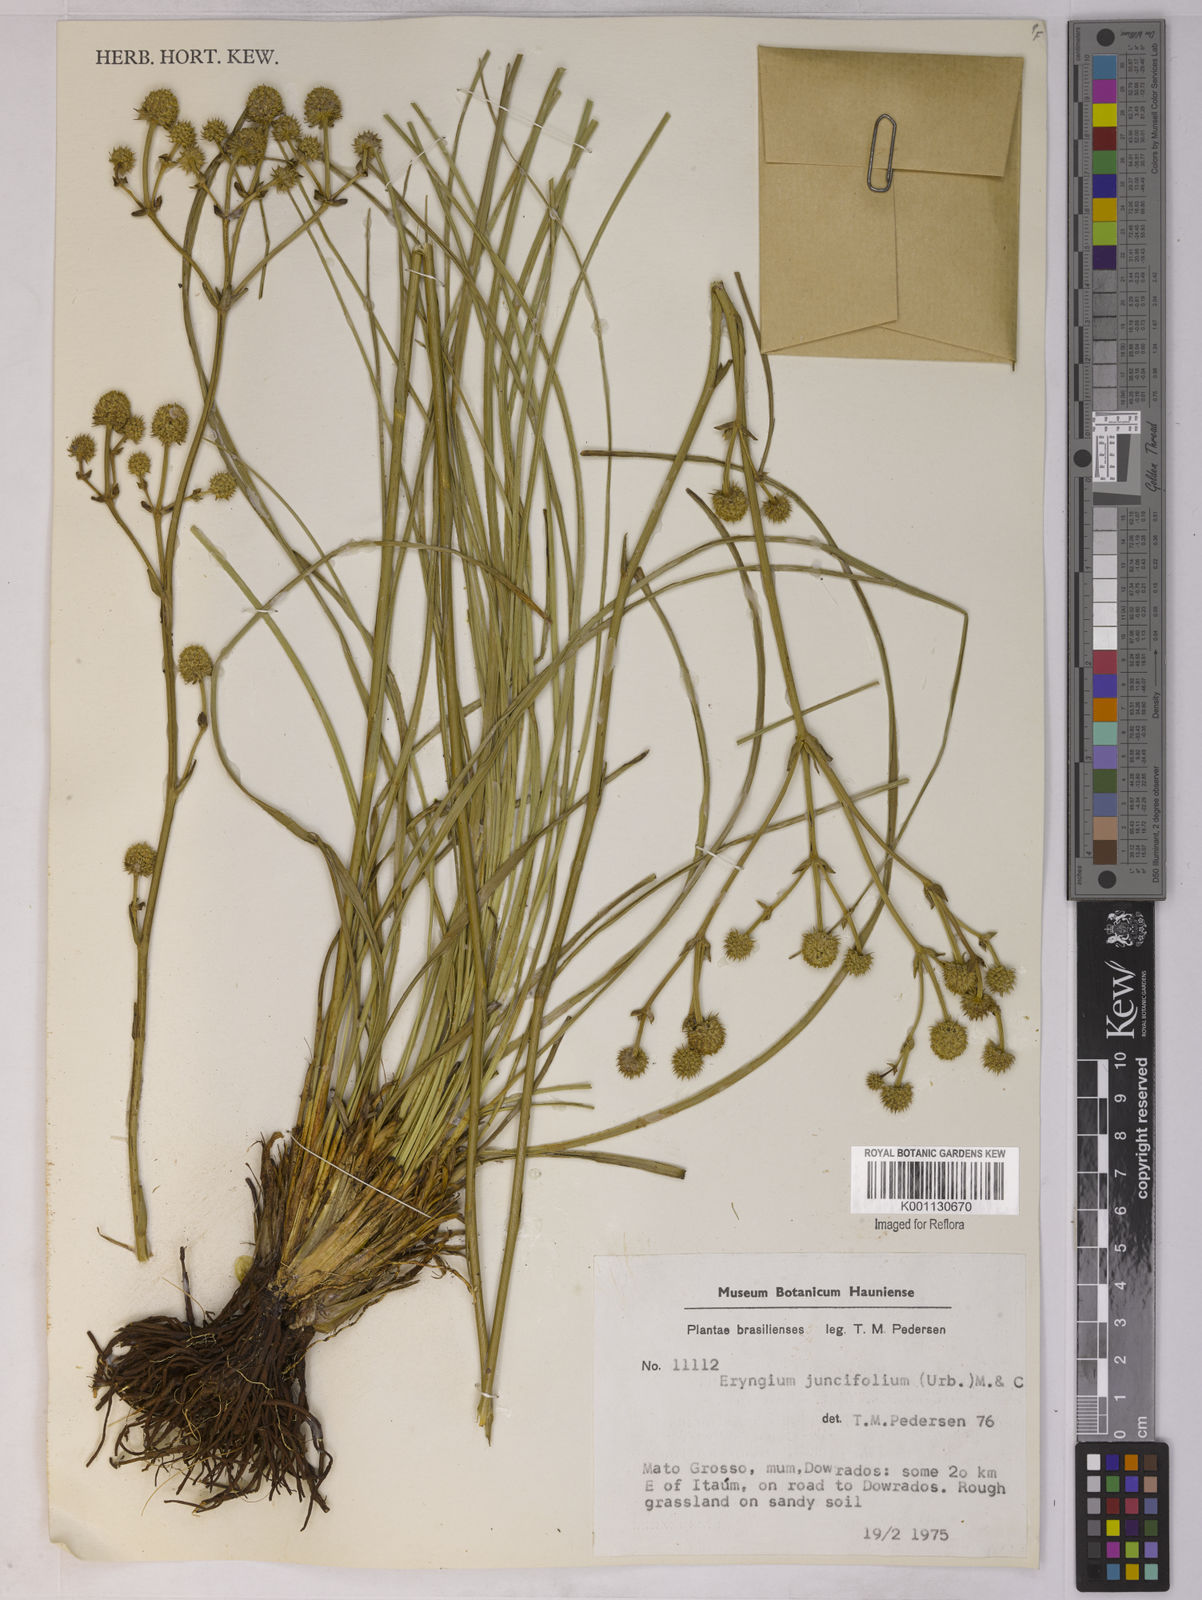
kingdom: Plantae
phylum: Tracheophyta
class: Magnoliopsida
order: Apiales
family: Apiaceae
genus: Eryngium
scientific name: Eryngium juncifolium
